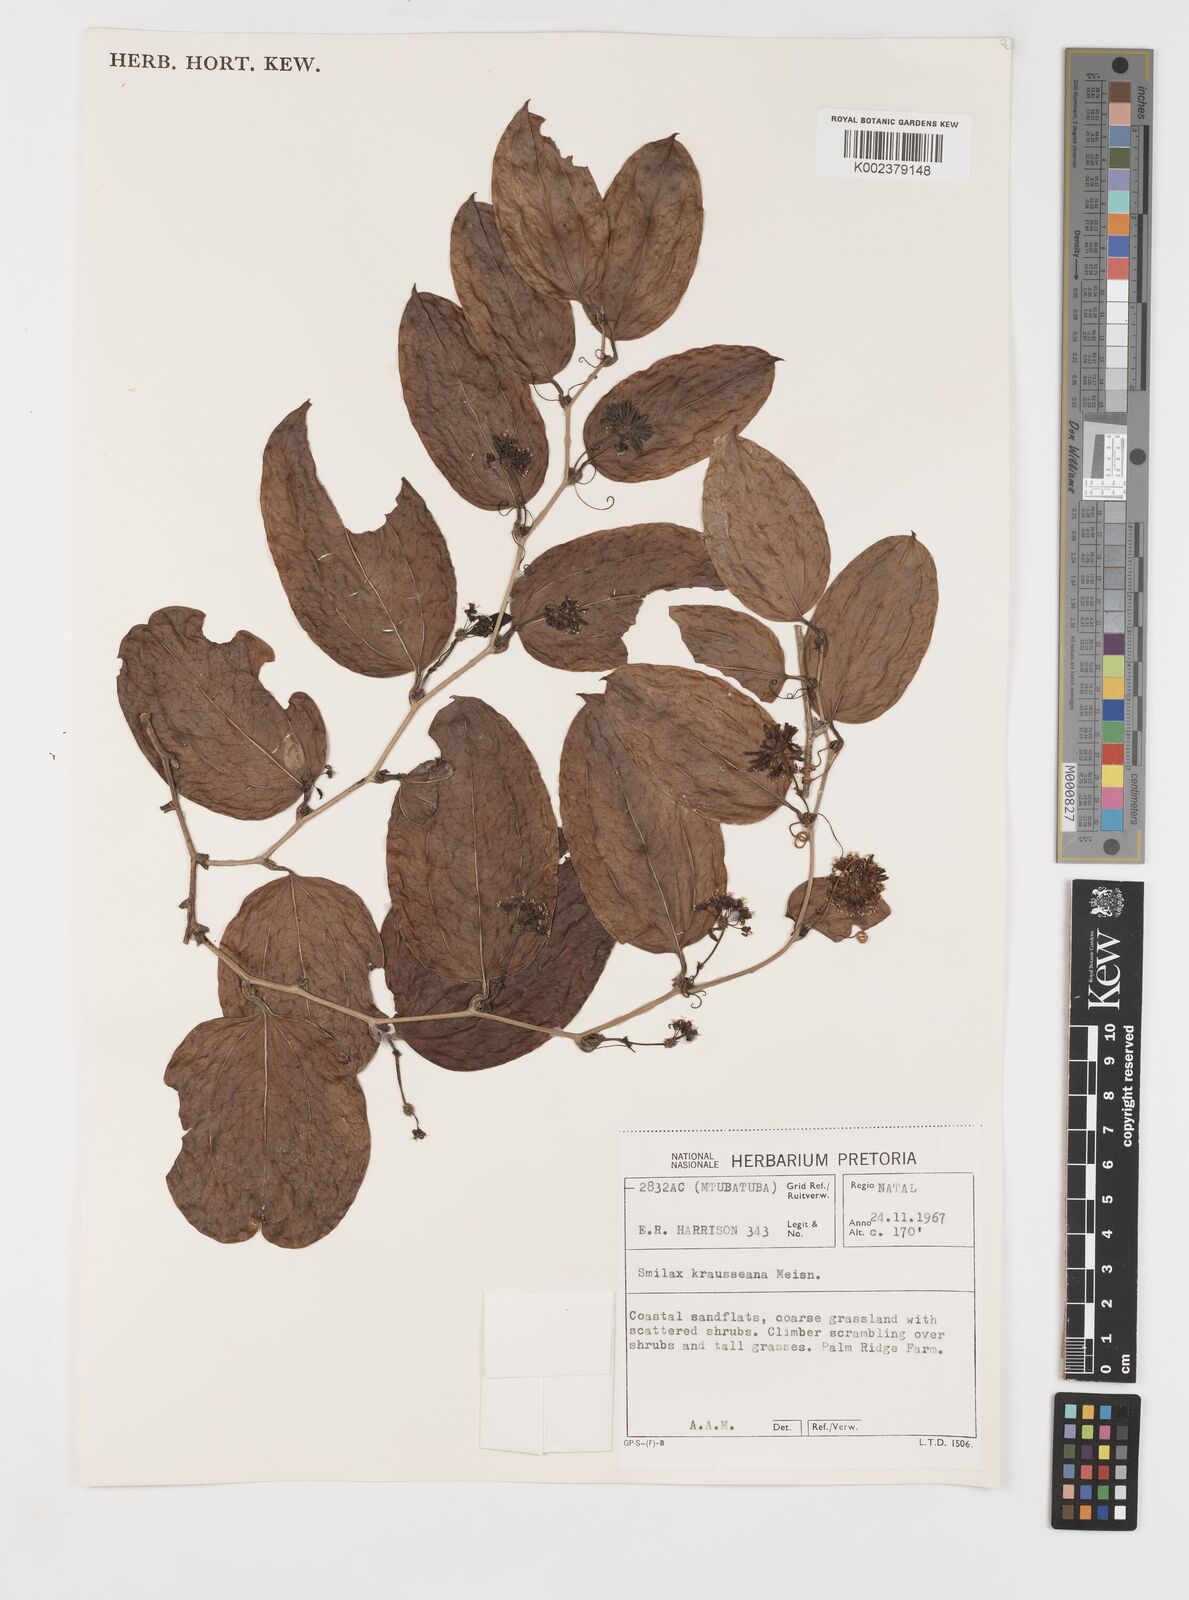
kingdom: Plantae
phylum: Tracheophyta
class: Liliopsida
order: Liliales
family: Smilacaceae
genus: Smilax
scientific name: Smilax anceps
